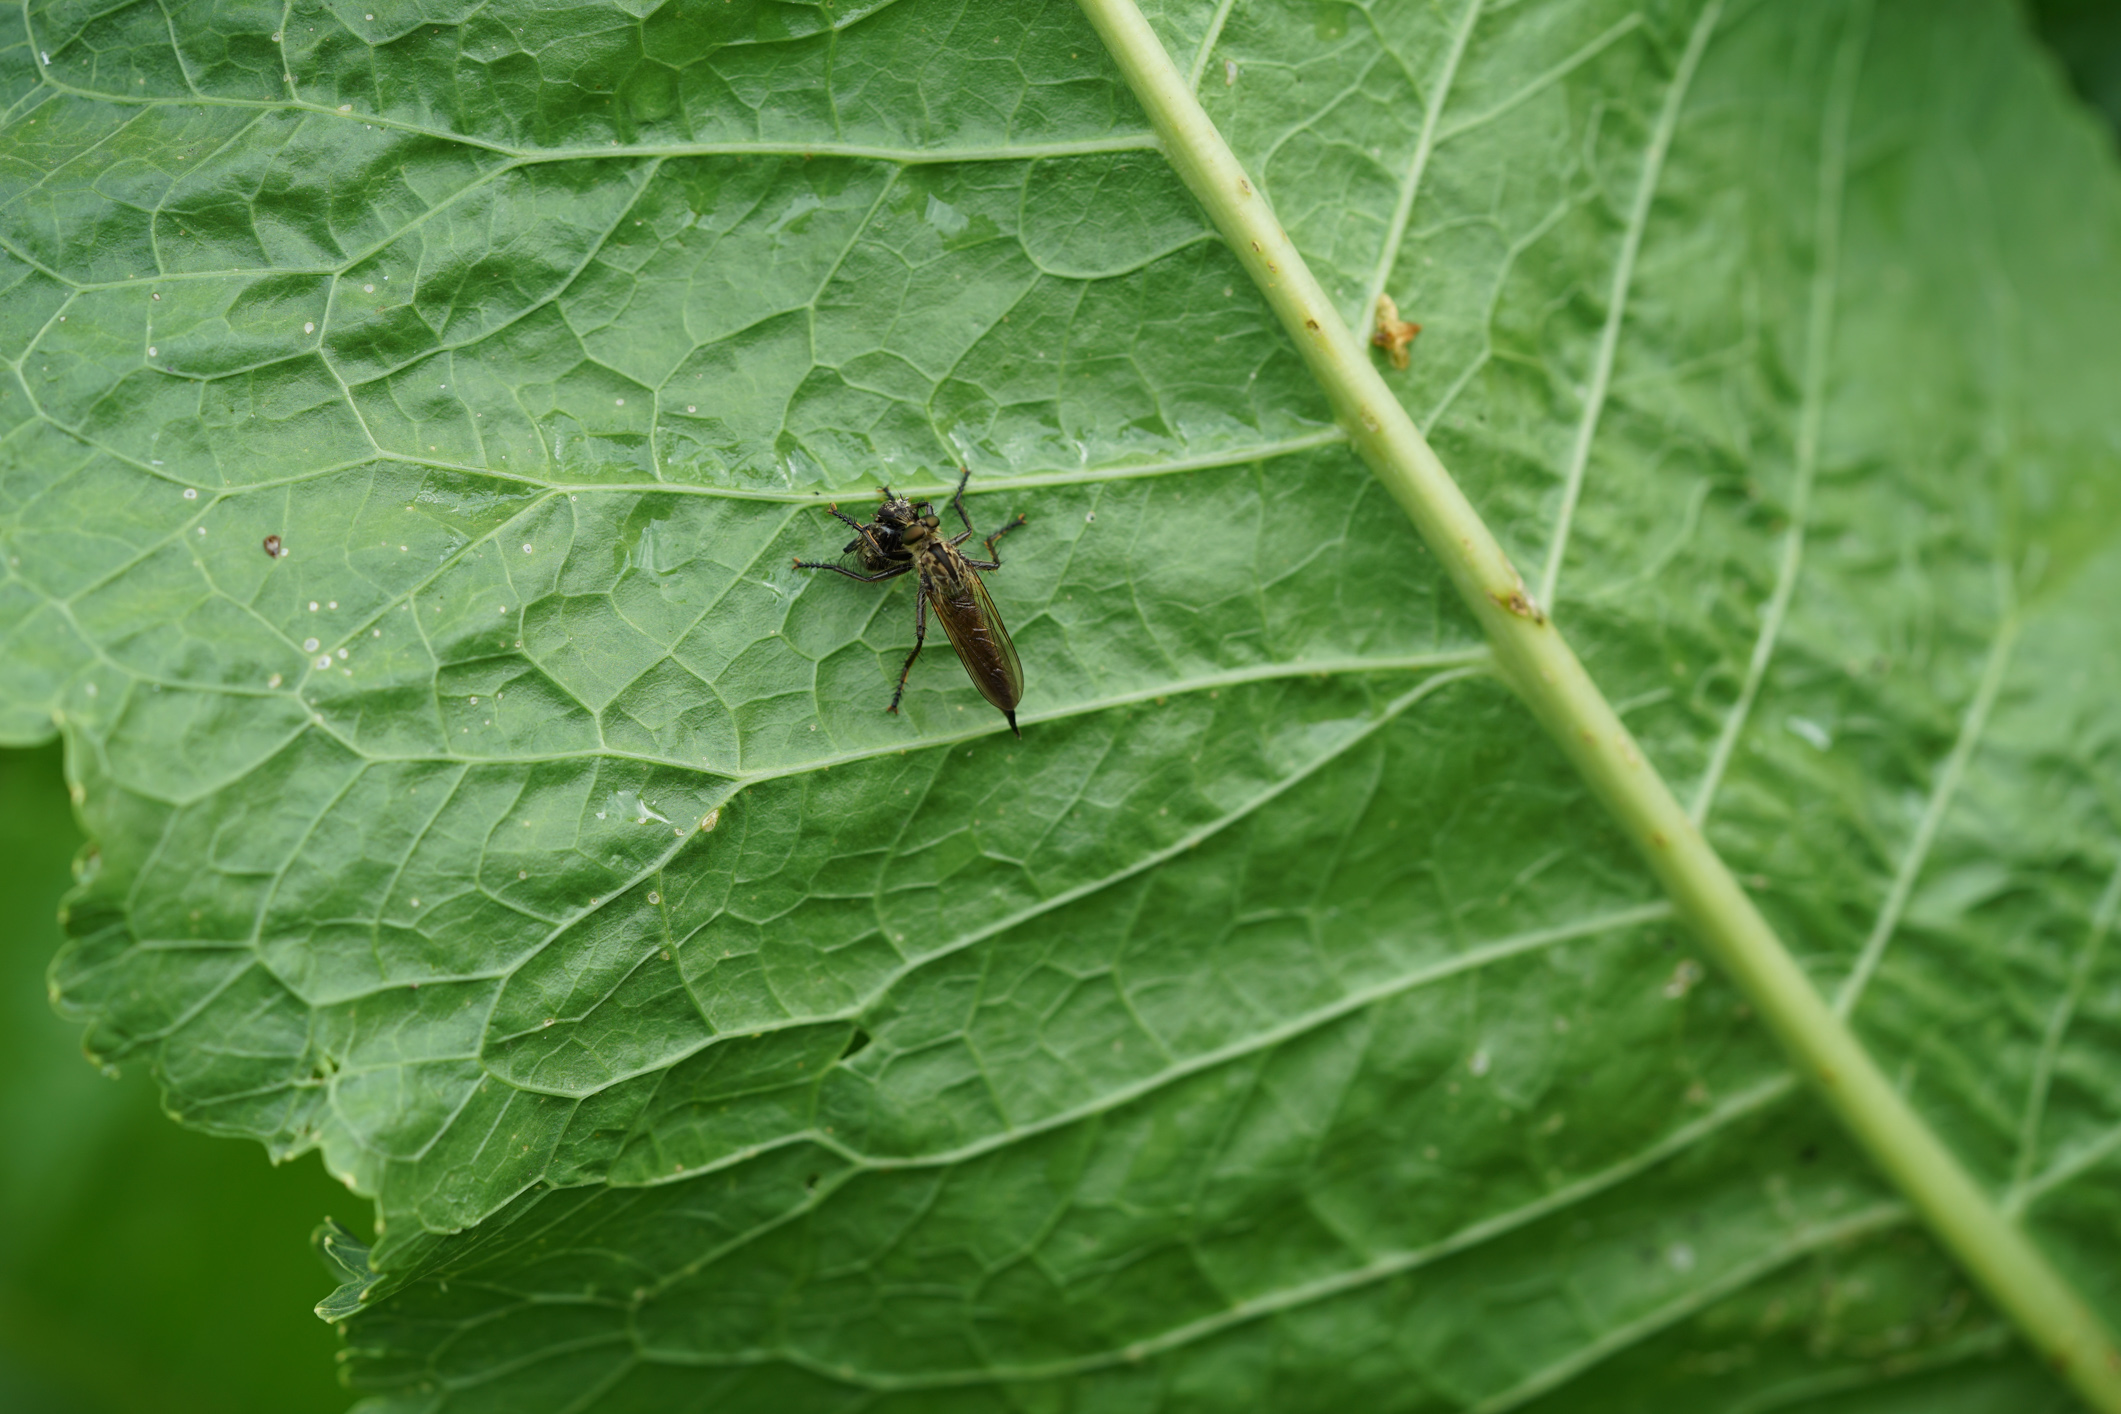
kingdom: Animalia
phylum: Arthropoda
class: Insecta
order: Diptera
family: Asilidae
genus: Machimus
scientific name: Machimus atricapillus
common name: Kite-tailed robberfly
